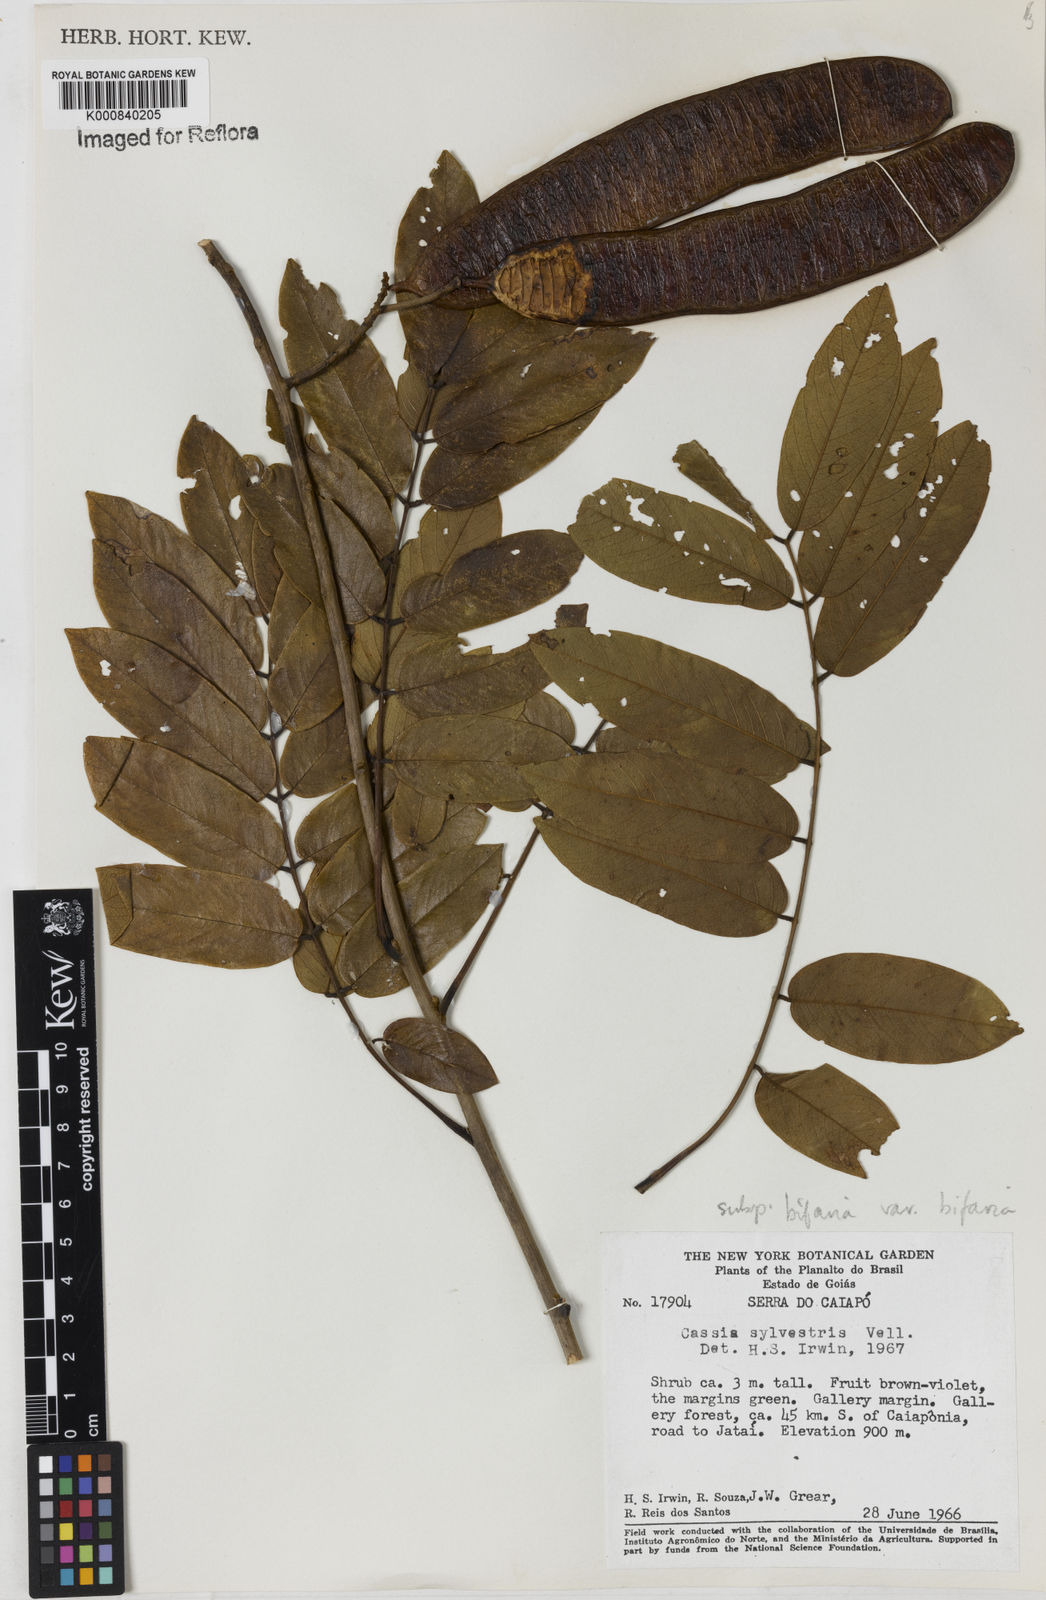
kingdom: Plantae
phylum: Tracheophyta
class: Magnoliopsida
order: Fabales
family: Fabaceae
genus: Senna
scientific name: Senna silvestris
